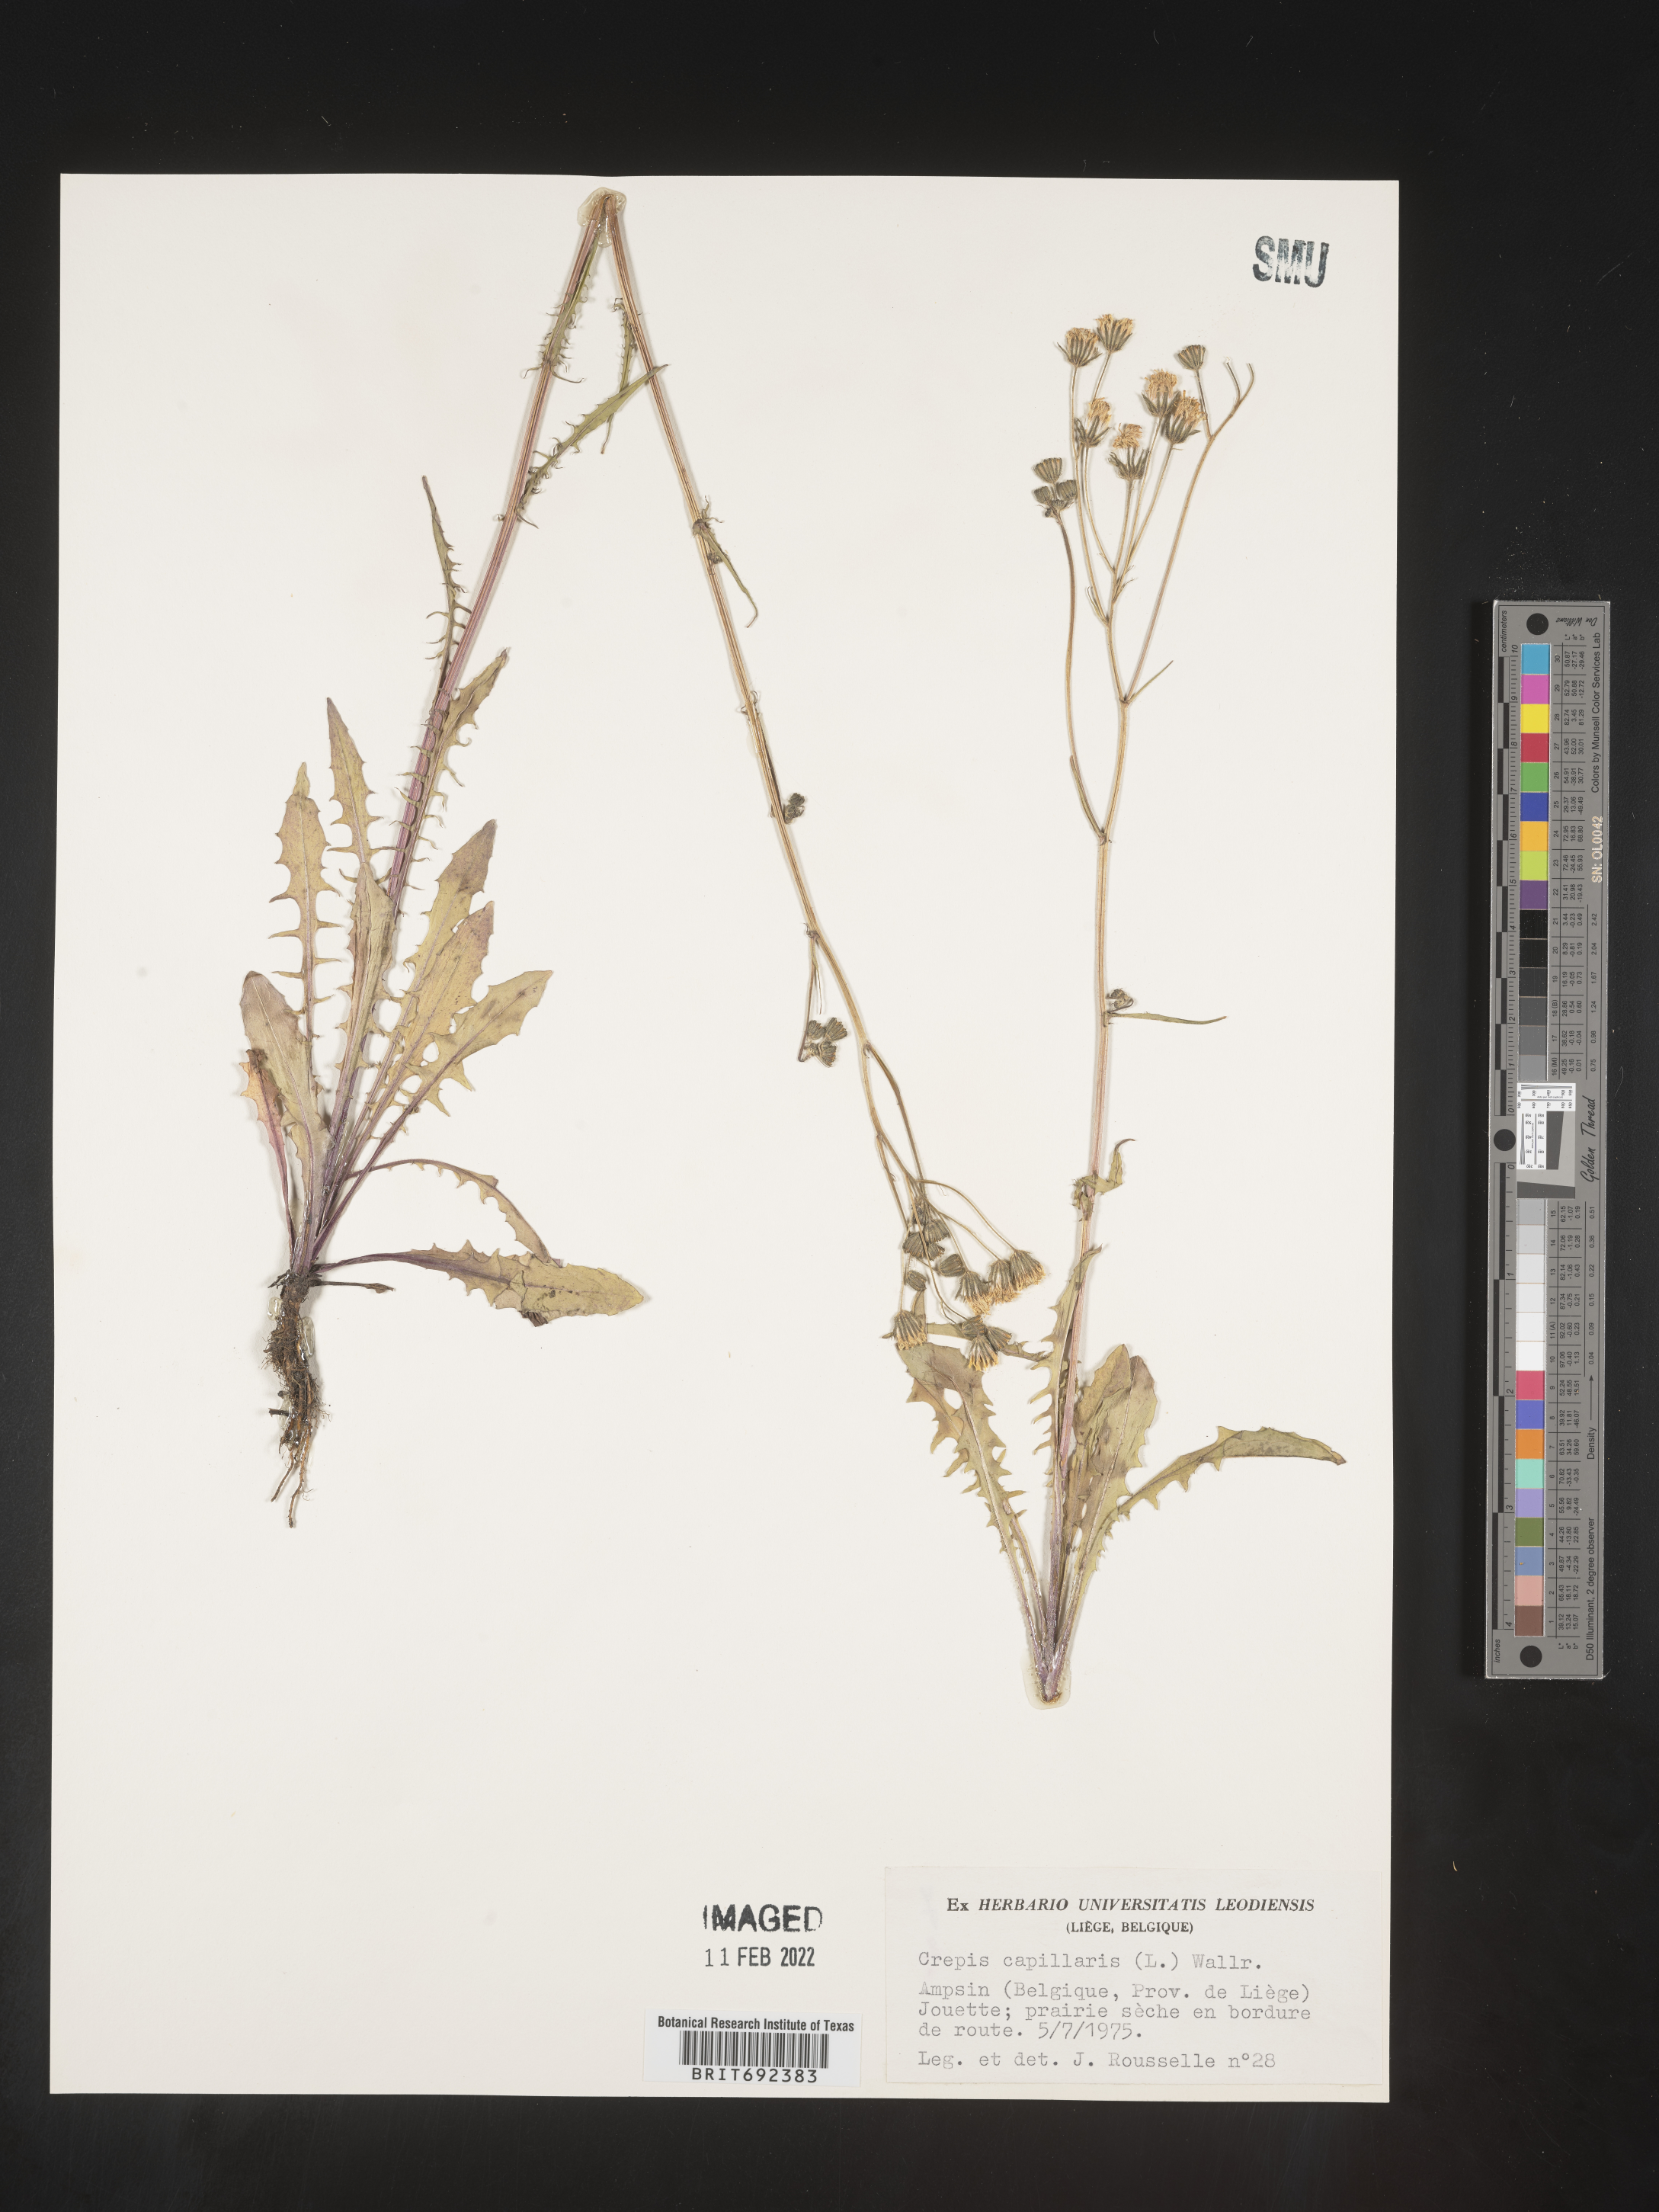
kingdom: Plantae
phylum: Tracheophyta
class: Magnoliopsida
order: Asterales
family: Asteraceae
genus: Crepis
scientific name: Crepis
